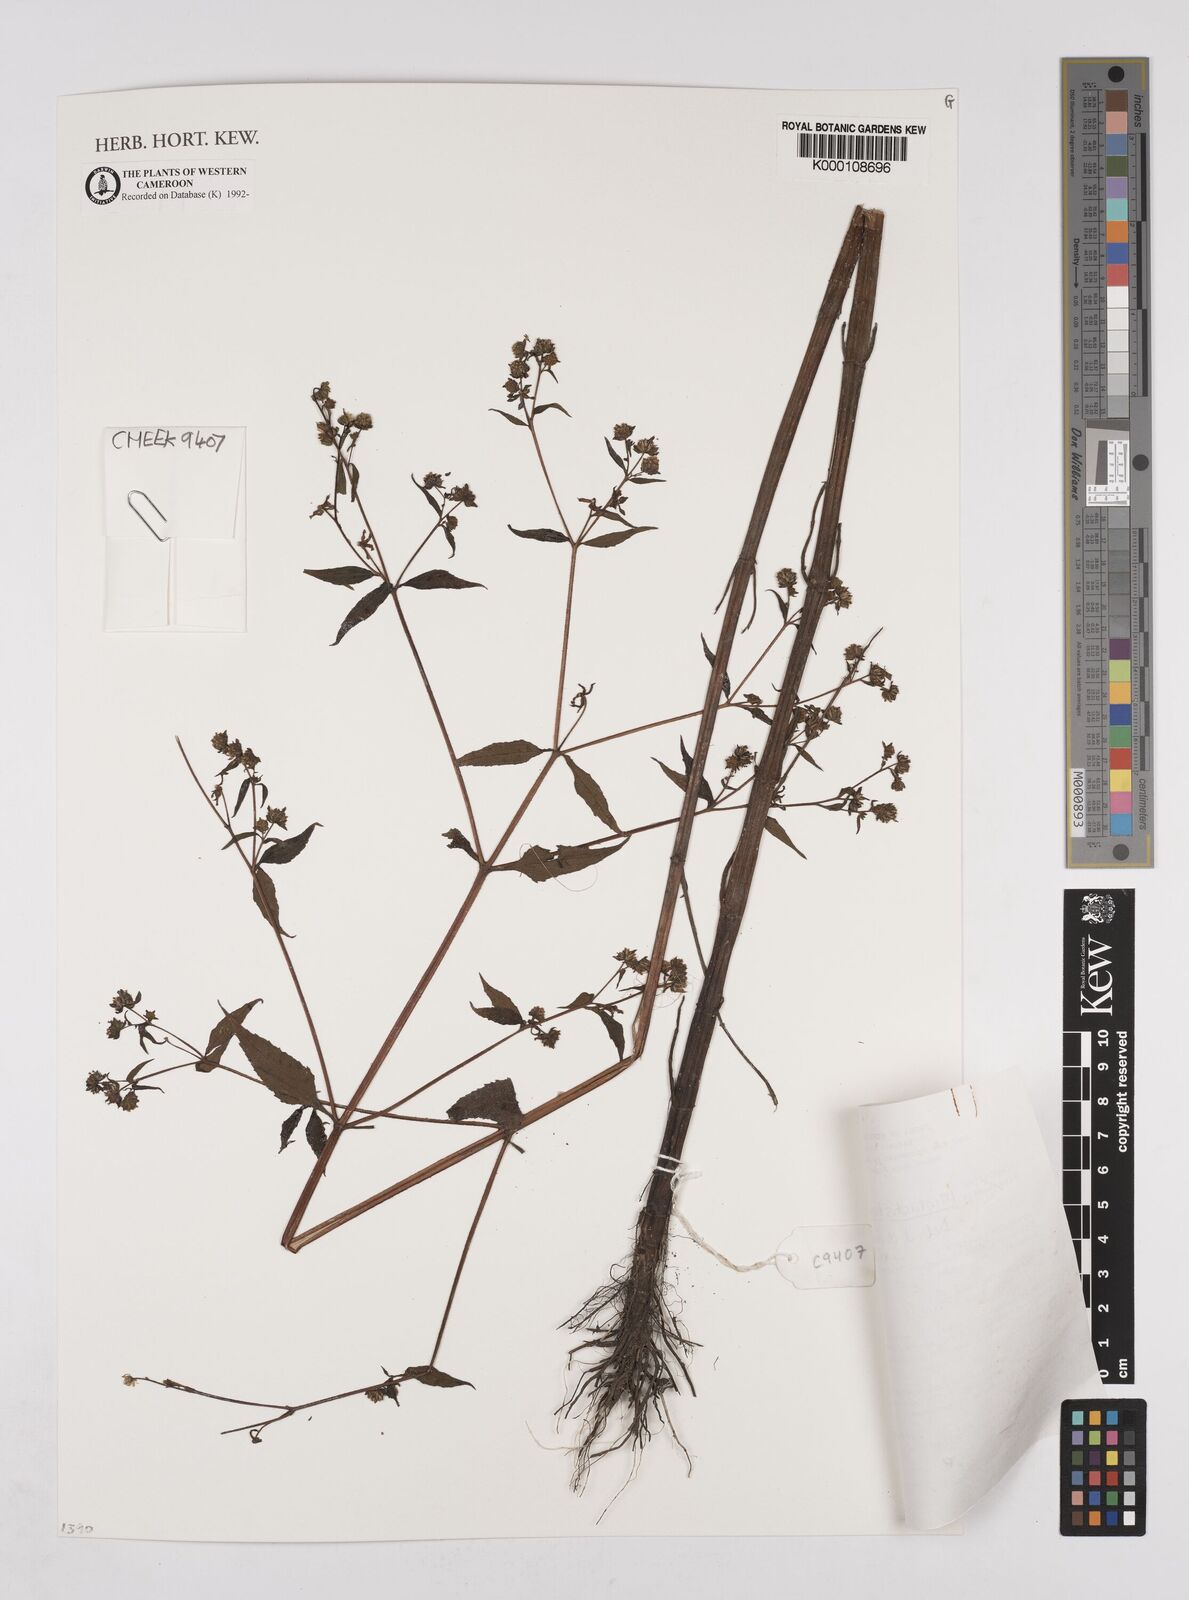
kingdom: Plantae
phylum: Tracheophyta
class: Magnoliopsida
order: Asterales
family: Asteraceae
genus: Micractis
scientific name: Micractis bojeri
